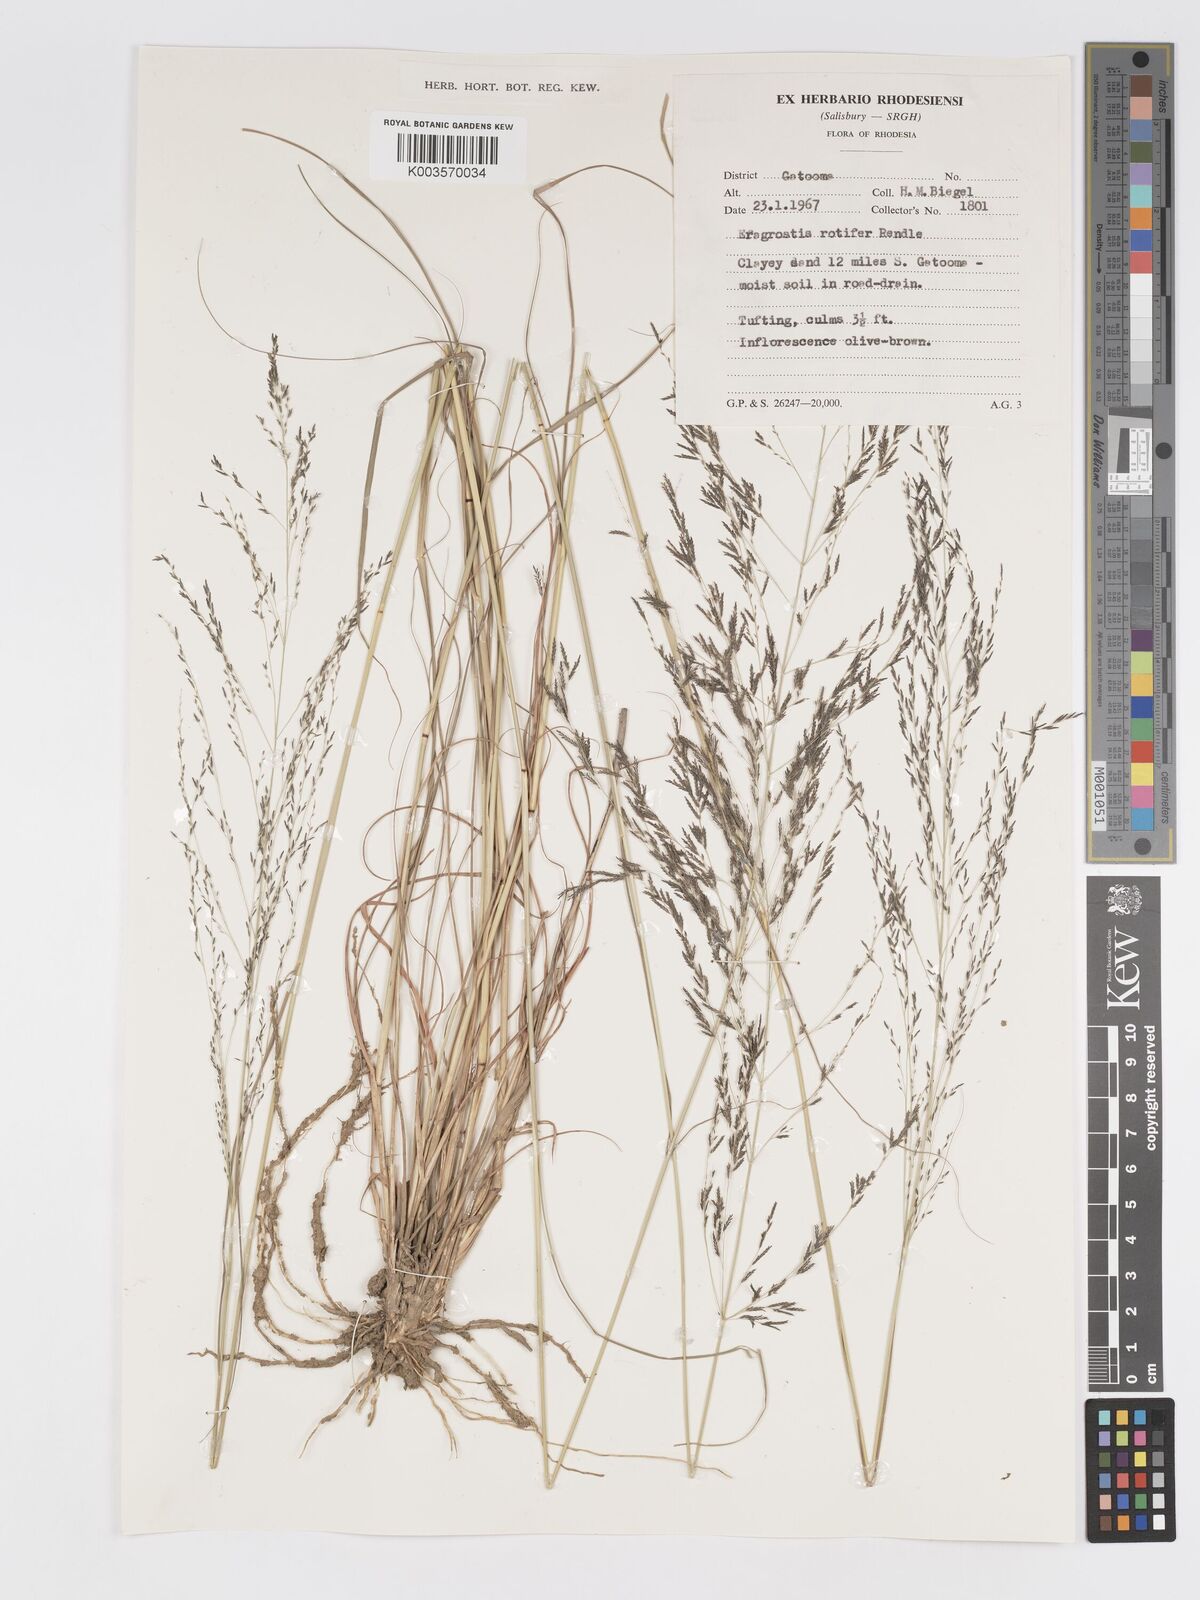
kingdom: Plantae
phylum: Tracheophyta
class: Liliopsida
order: Poales
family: Poaceae
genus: Eragrostis
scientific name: Eragrostis rotifer
